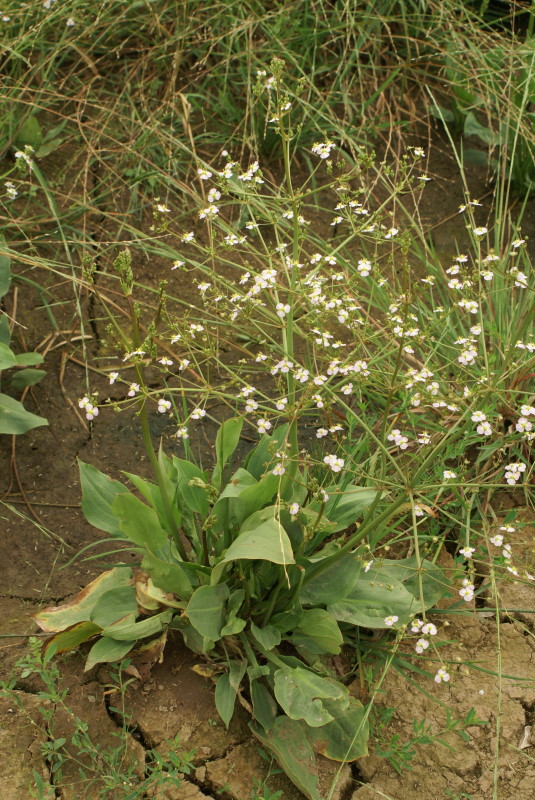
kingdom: Plantae
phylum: Tracheophyta
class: Liliopsida
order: Alismatales
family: Alismataceae
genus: Alisma
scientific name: Alisma plantago-aquatica
